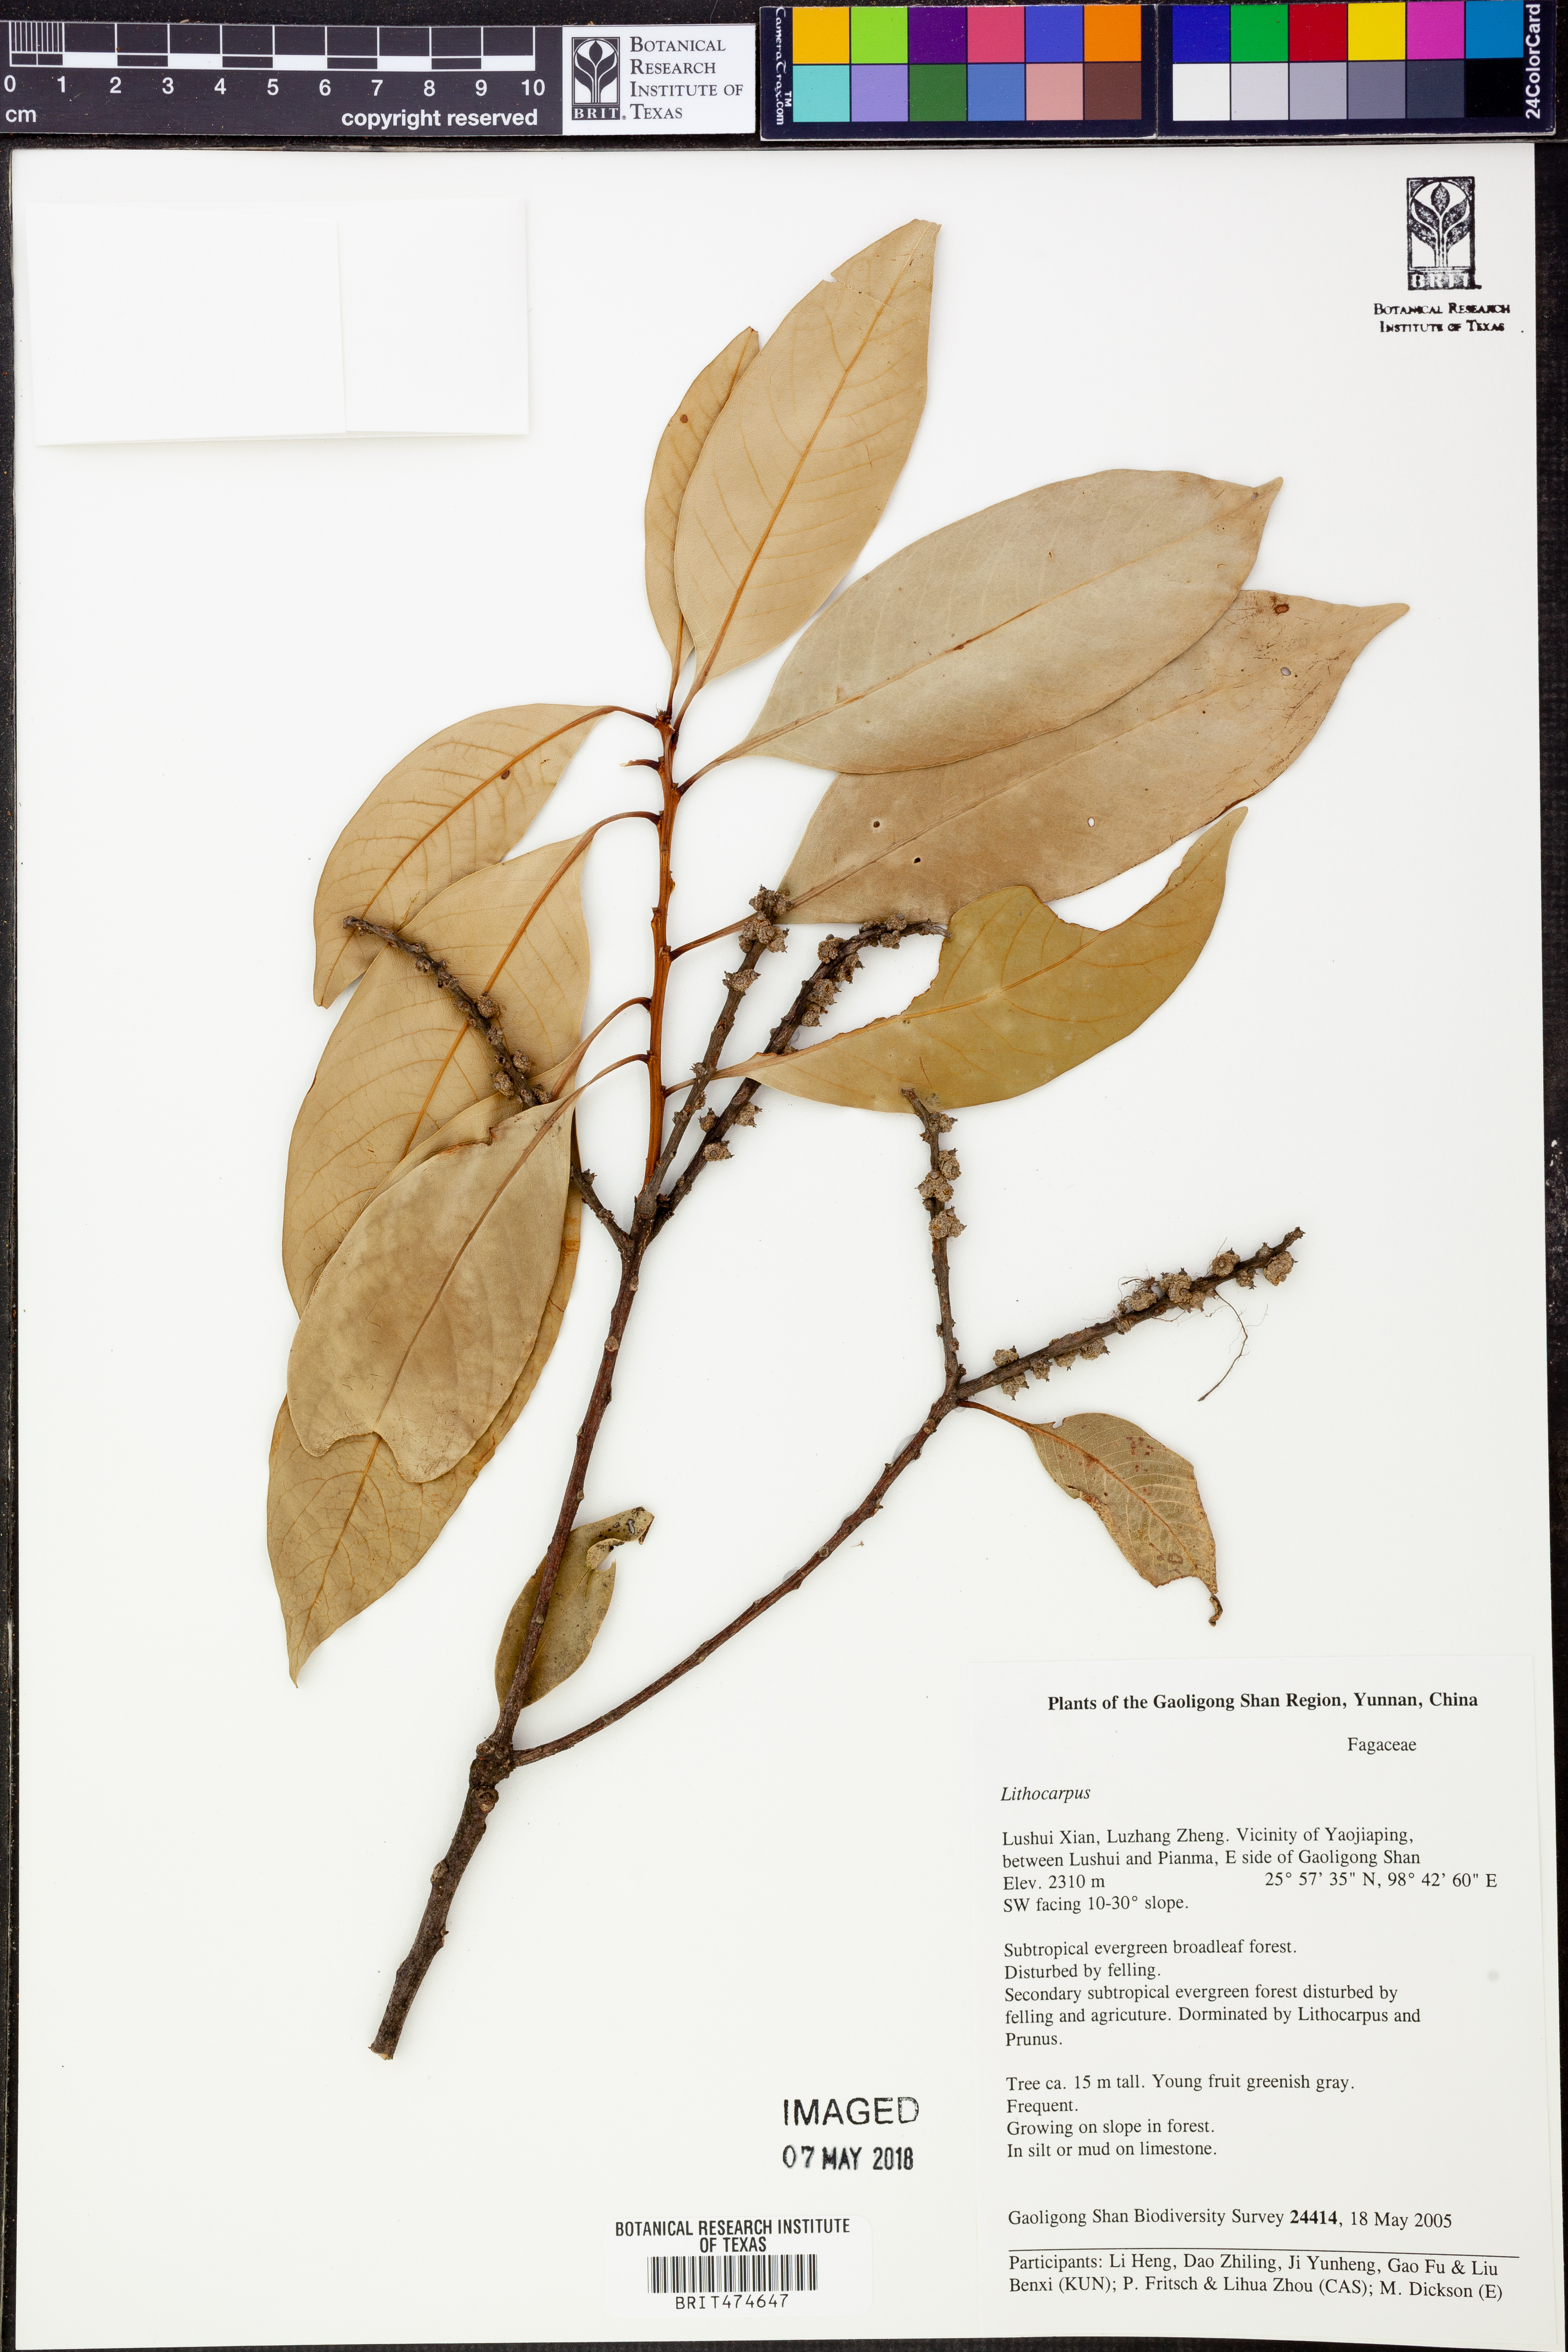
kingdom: Plantae
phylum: Tracheophyta
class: Magnoliopsida
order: Fagales
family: Fagaceae
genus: Lithocarpus
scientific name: Lithocarpus
